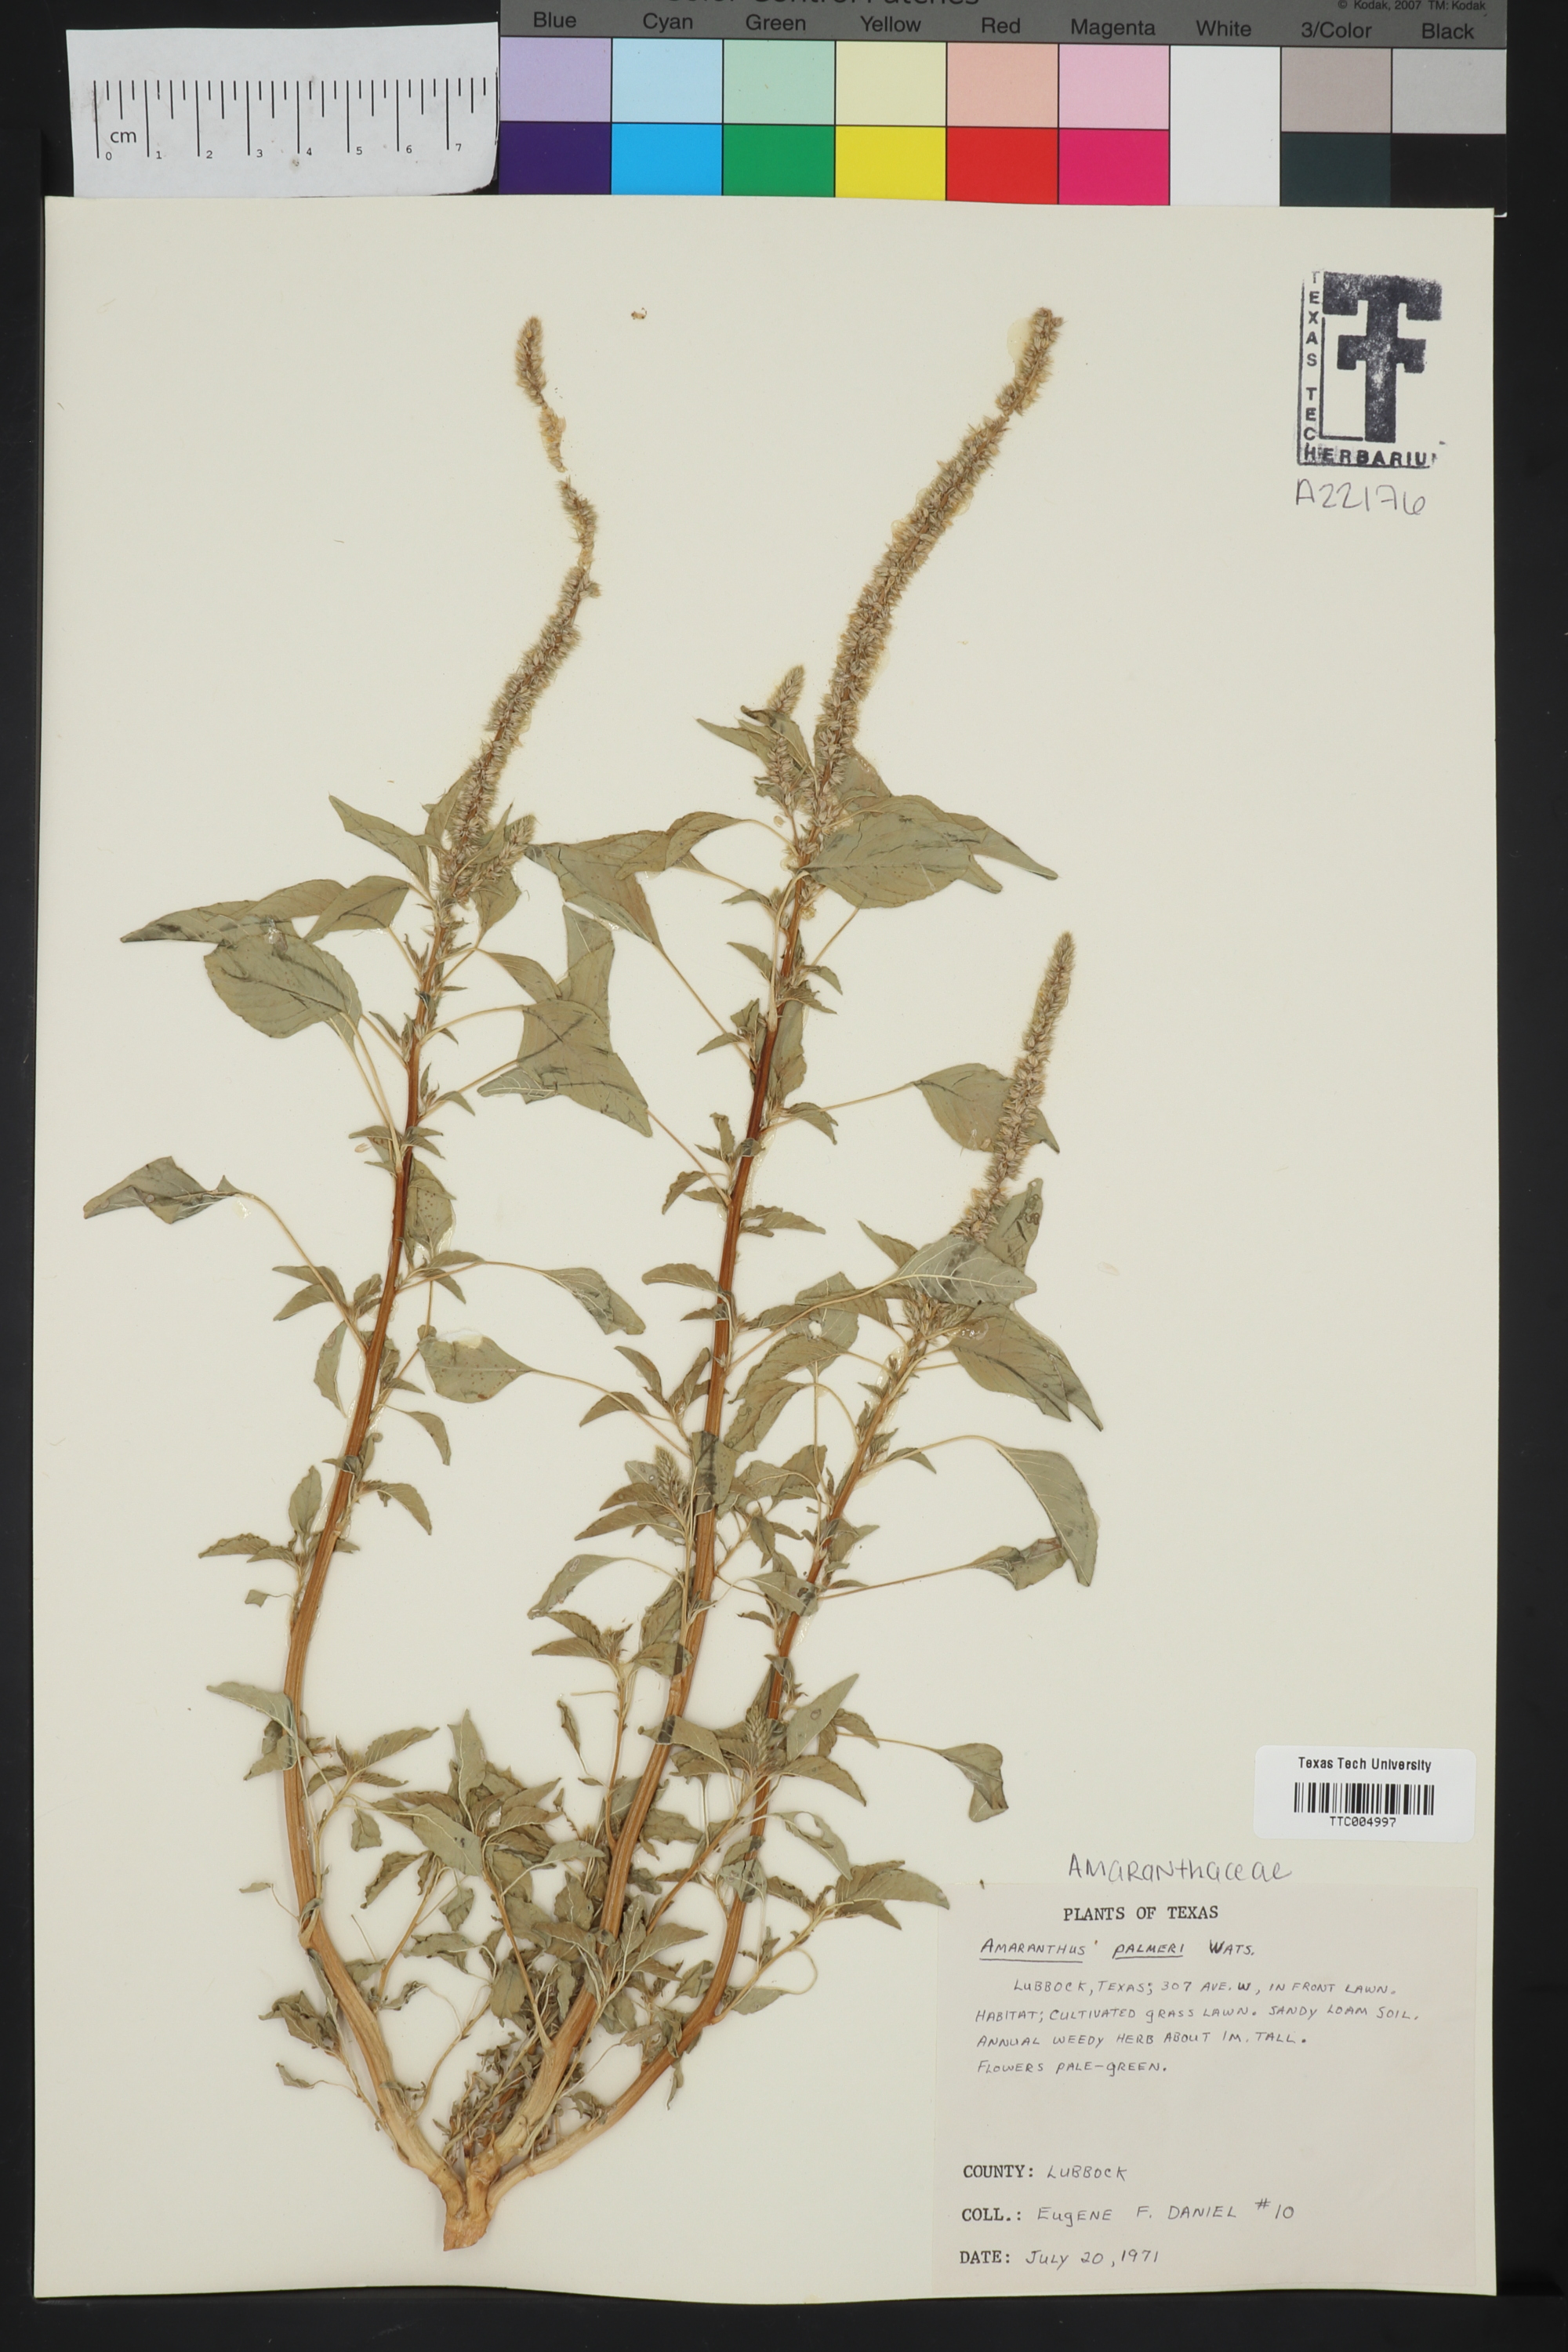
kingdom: Plantae
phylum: Tracheophyta
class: Magnoliopsida
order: Caryophyllales
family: Amaranthaceae
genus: Amaranthus
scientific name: Amaranthus palmeri
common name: Dioecious amaranth
